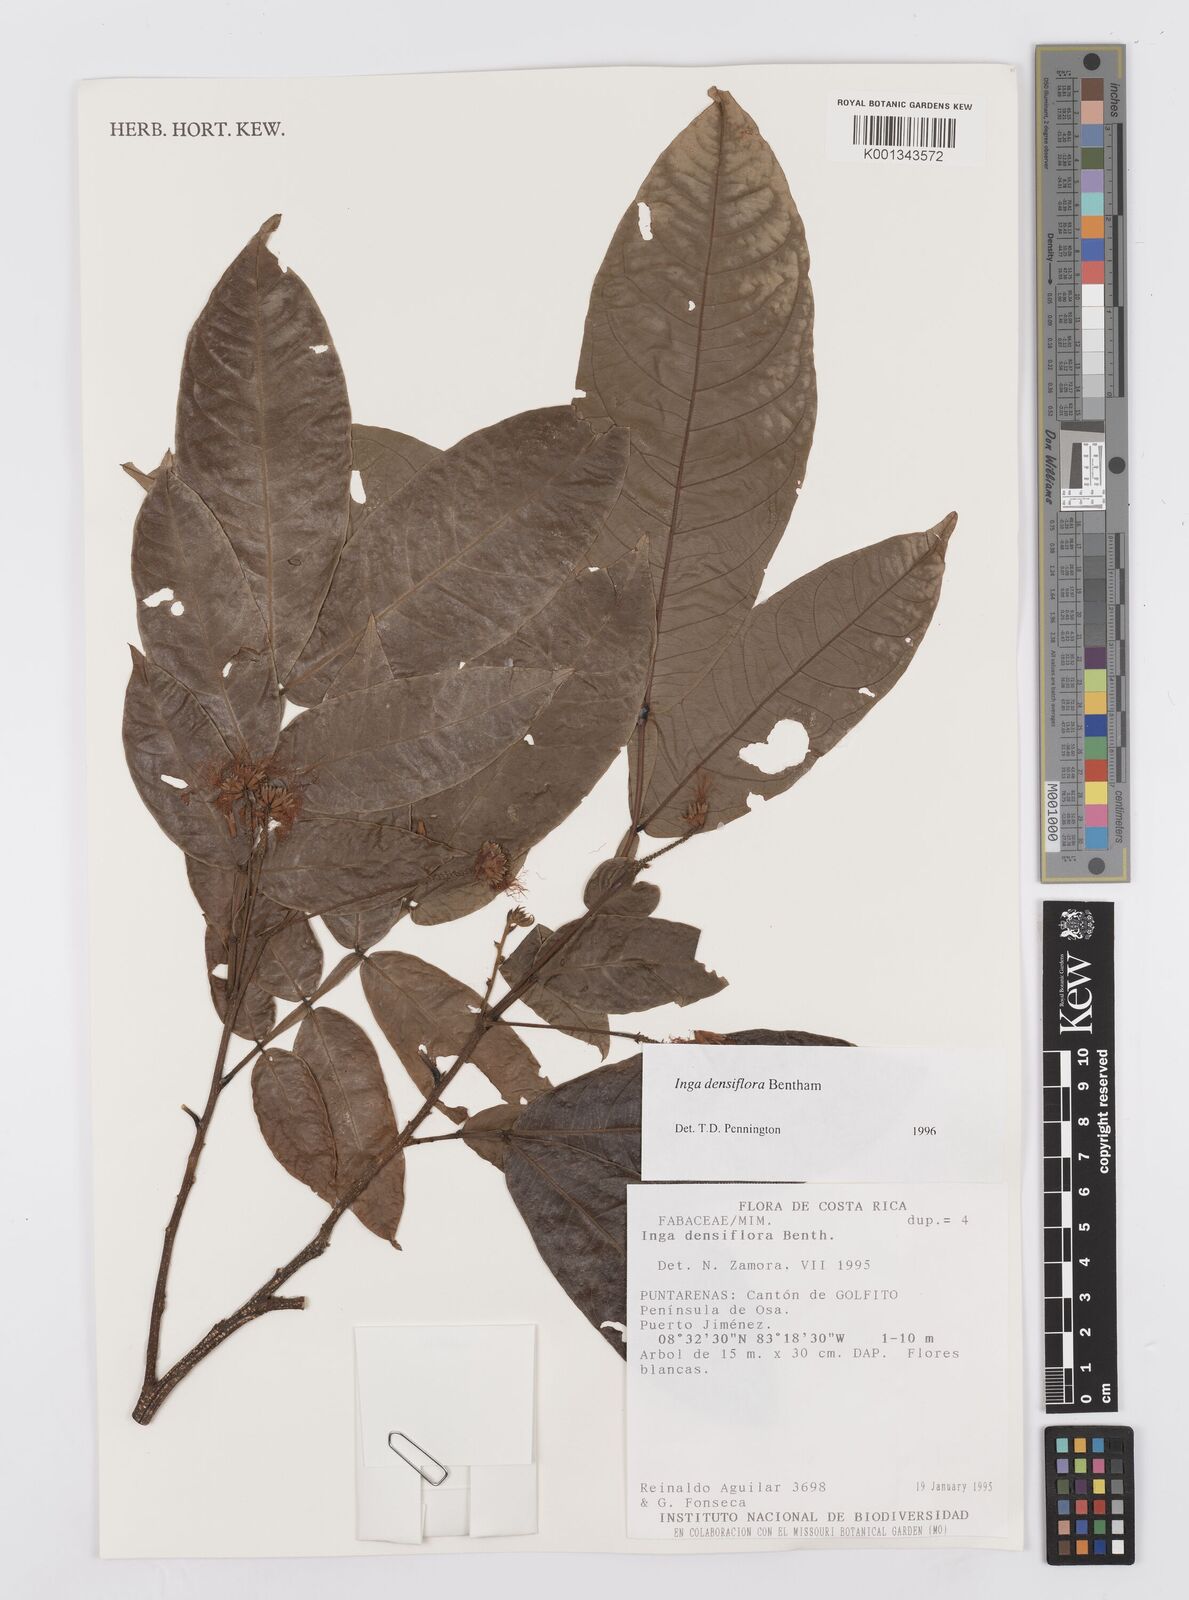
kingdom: Plantae
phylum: Tracheophyta
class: Magnoliopsida
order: Fabales
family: Fabaceae
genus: Inga
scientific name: Inga densiflora
